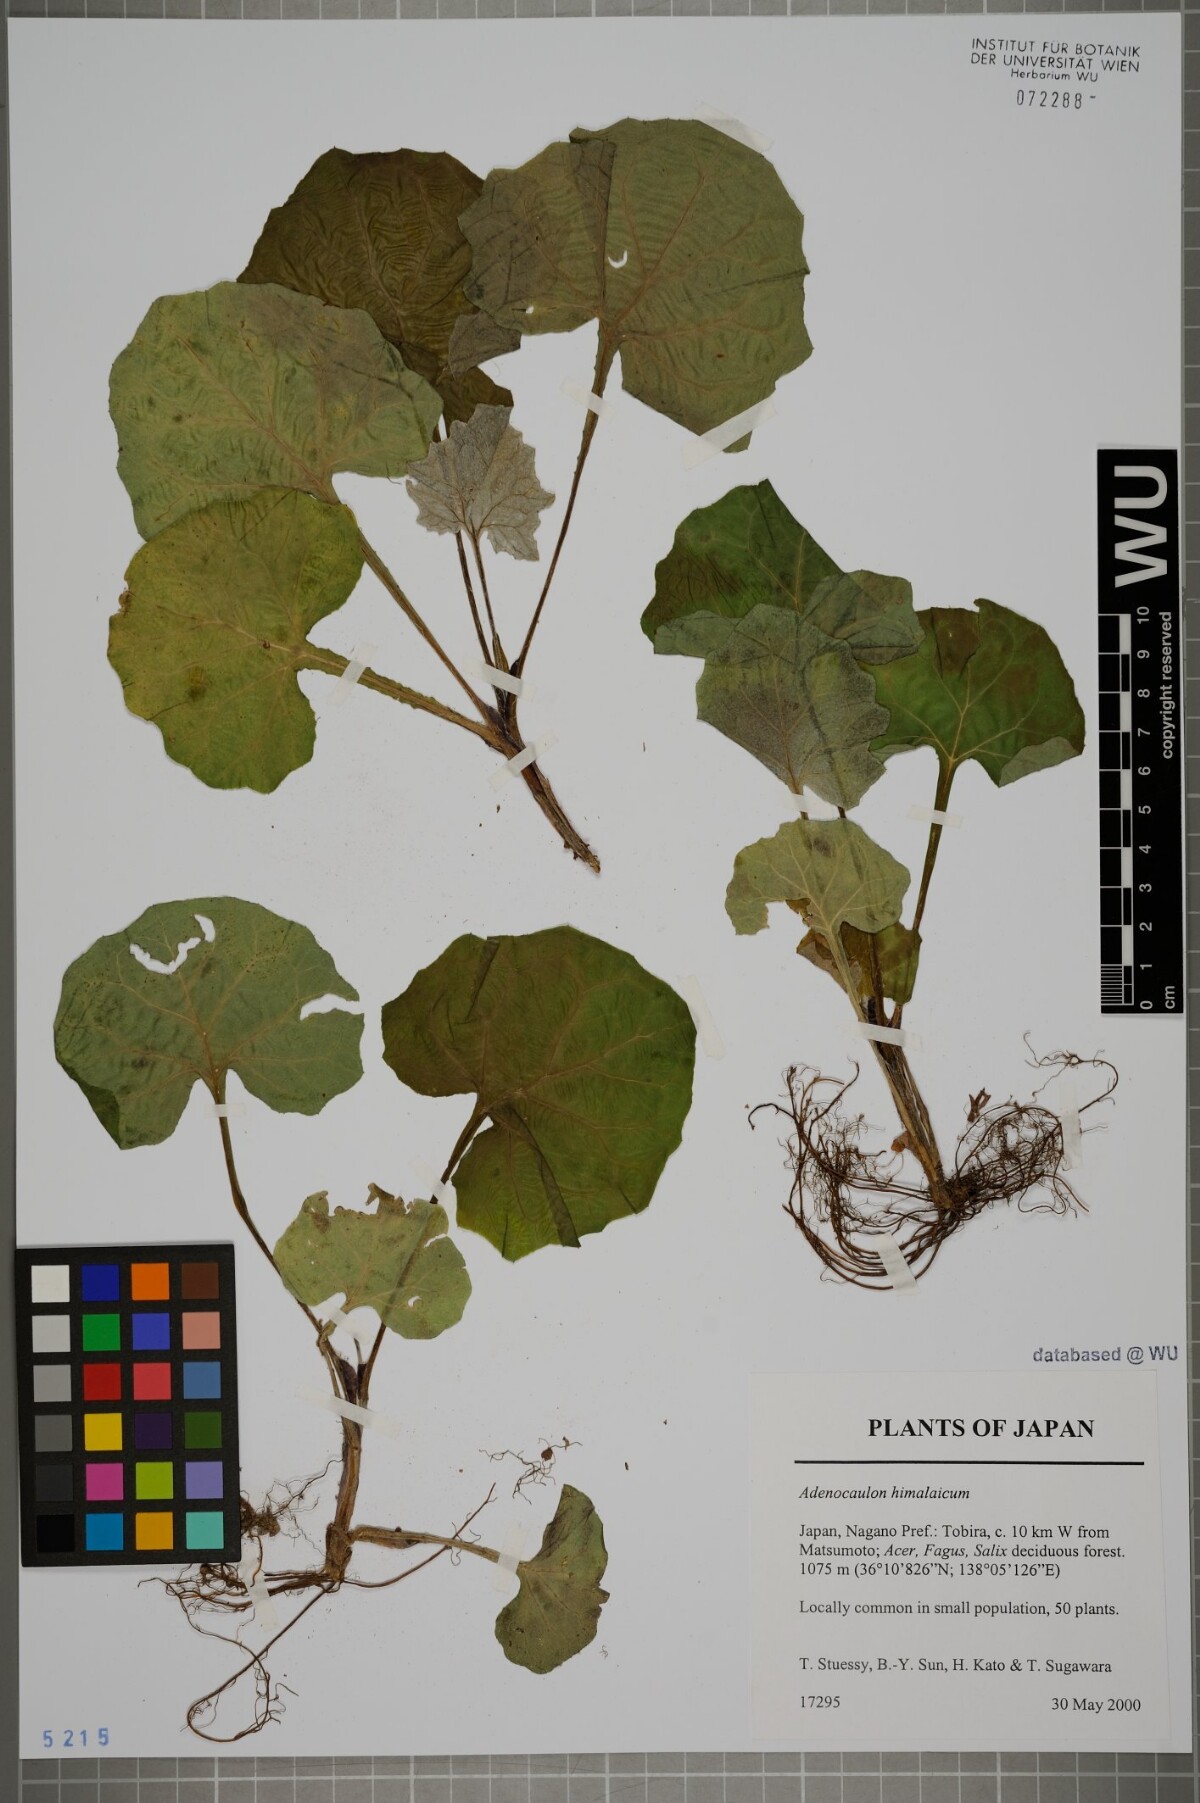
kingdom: Plantae
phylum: Tracheophyta
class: Magnoliopsida
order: Asterales
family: Asteraceae
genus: Adenocaulon
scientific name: Adenocaulon himalaicum
